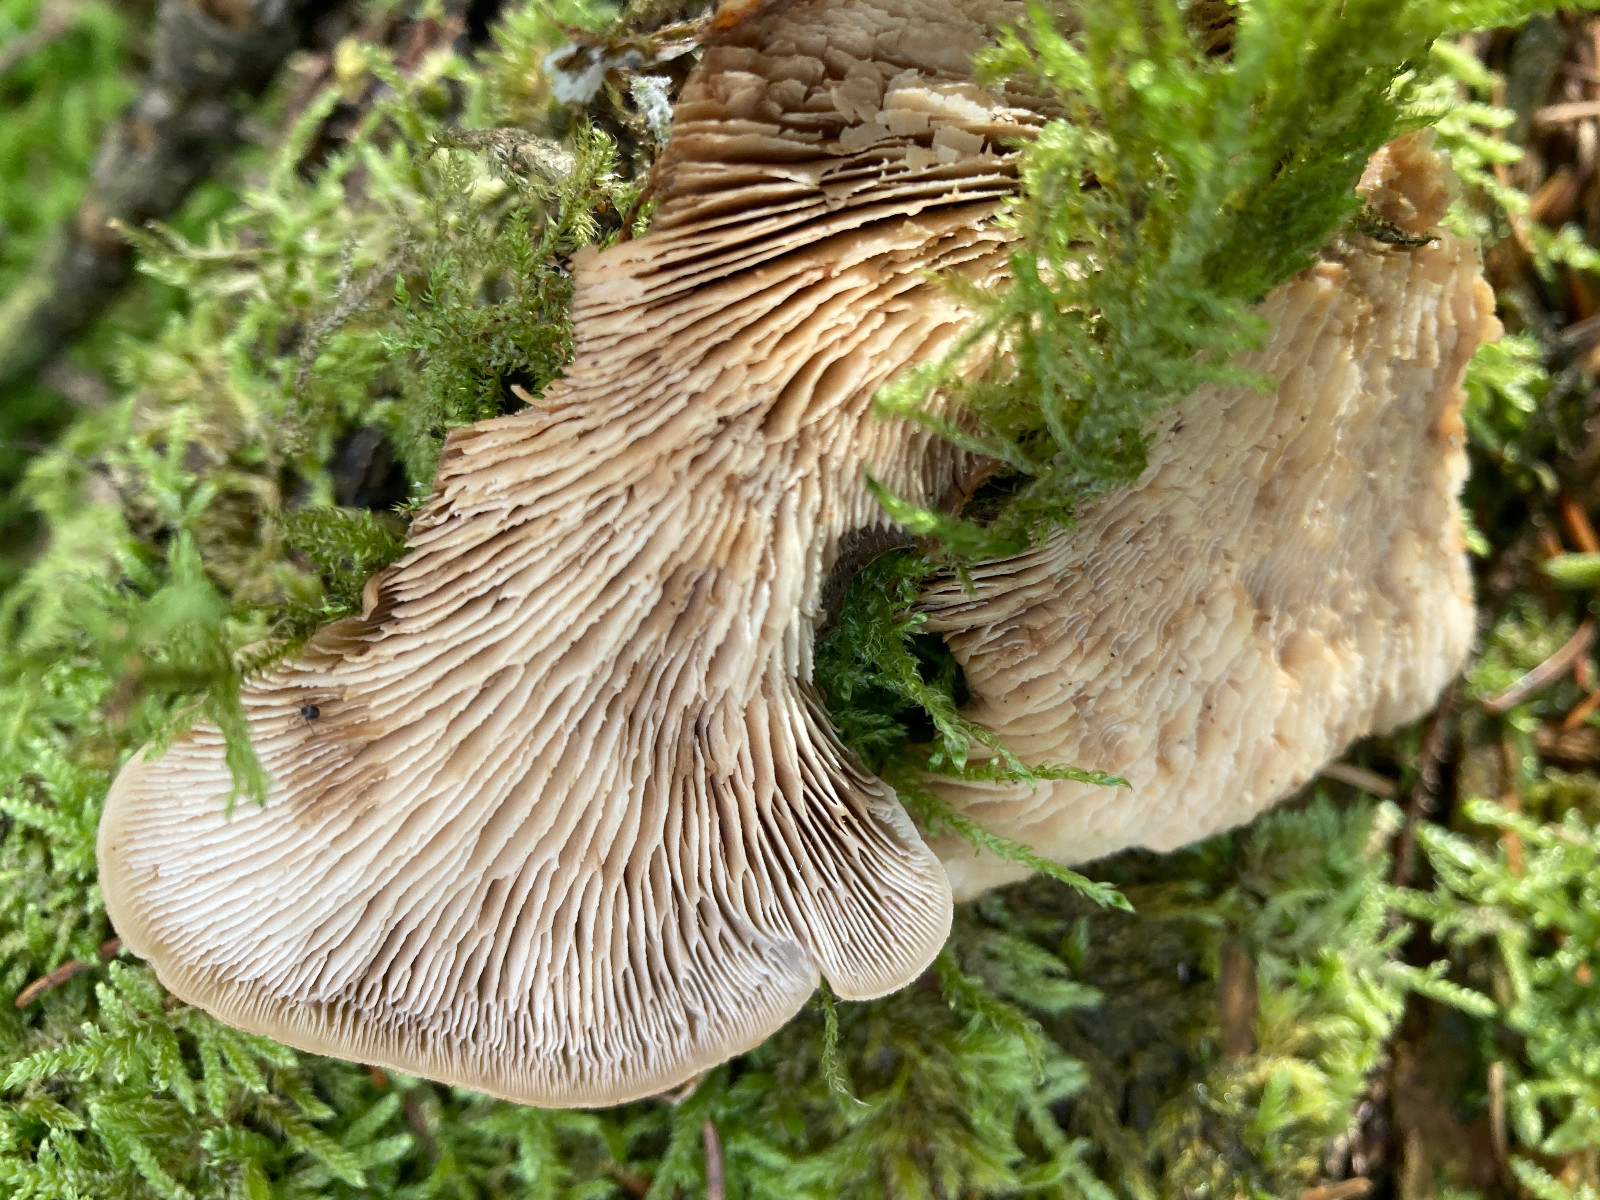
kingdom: Fungi
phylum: Basidiomycota
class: Agaricomycetes
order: Russulales
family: Auriscalpiaceae
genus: Lentinellus
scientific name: Lentinellus ursinus
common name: børstehåret savbladhat
